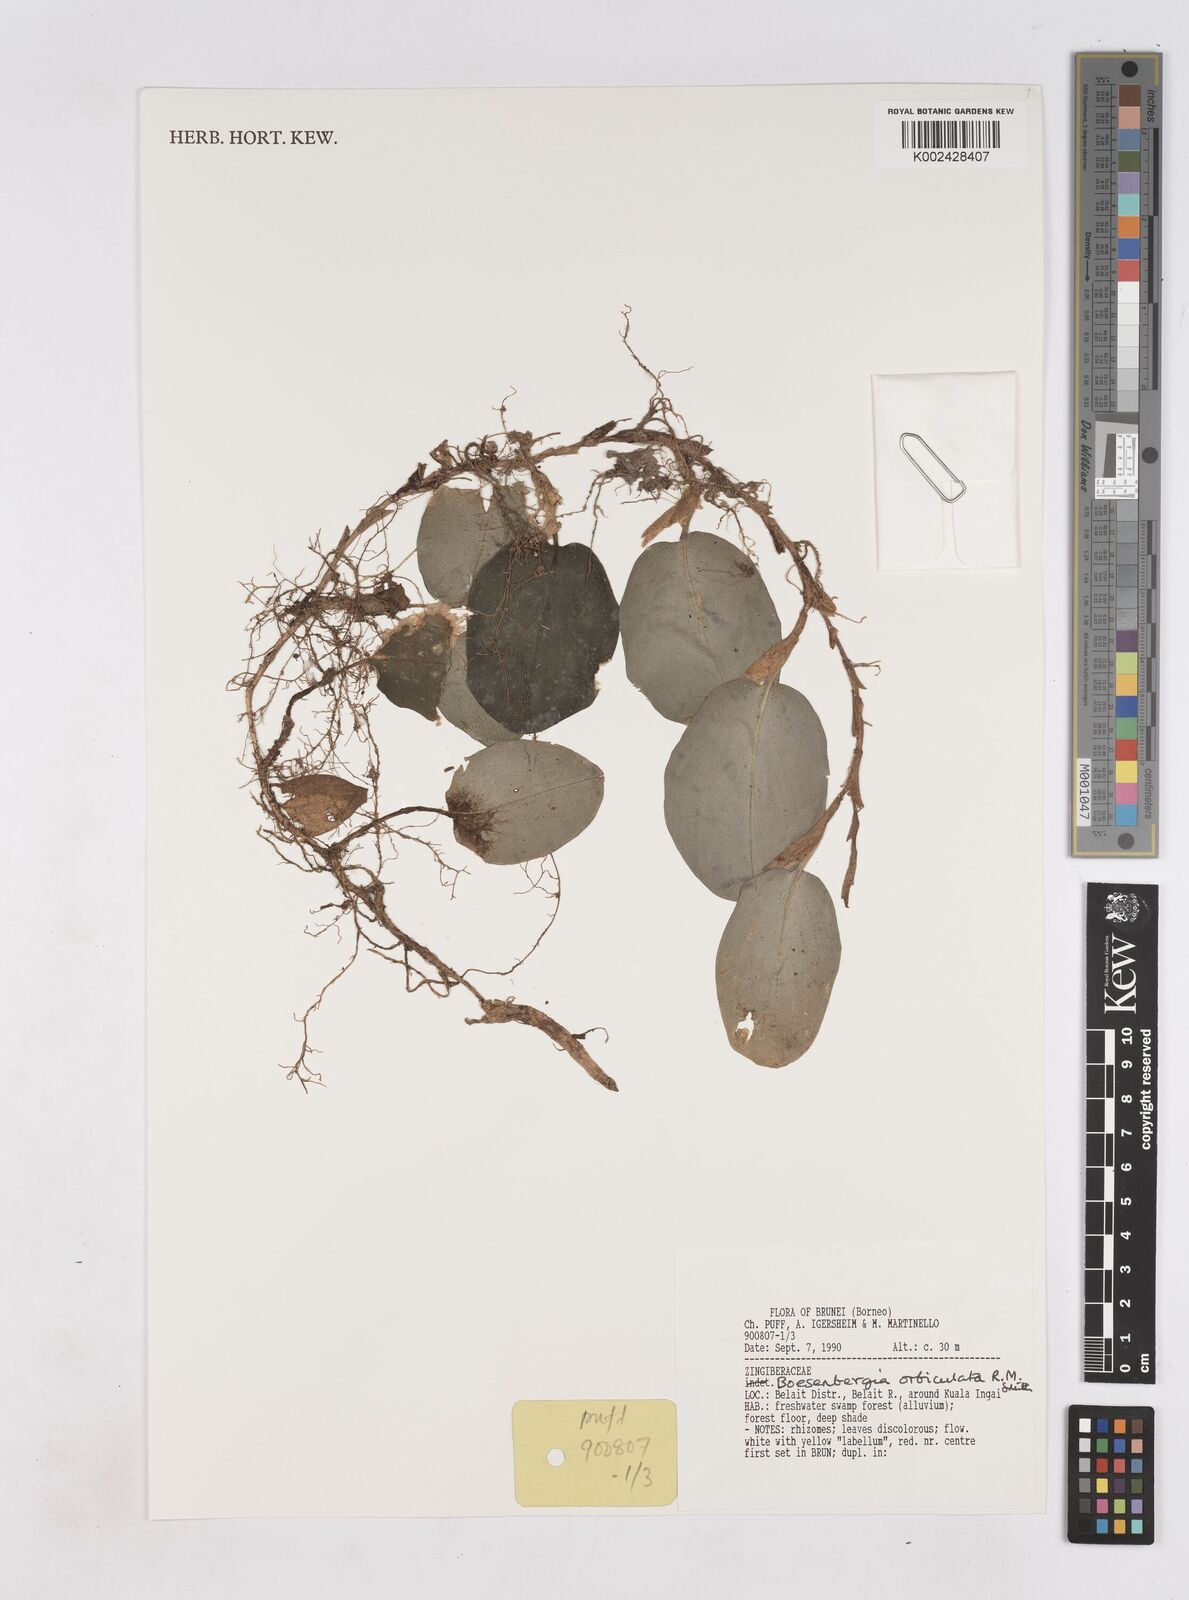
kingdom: Plantae
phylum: Tracheophyta
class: Liliopsida
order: Zingiberales
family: Zingiberaceae
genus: Boesenbergia
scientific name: Boesenbergia orbiculata
